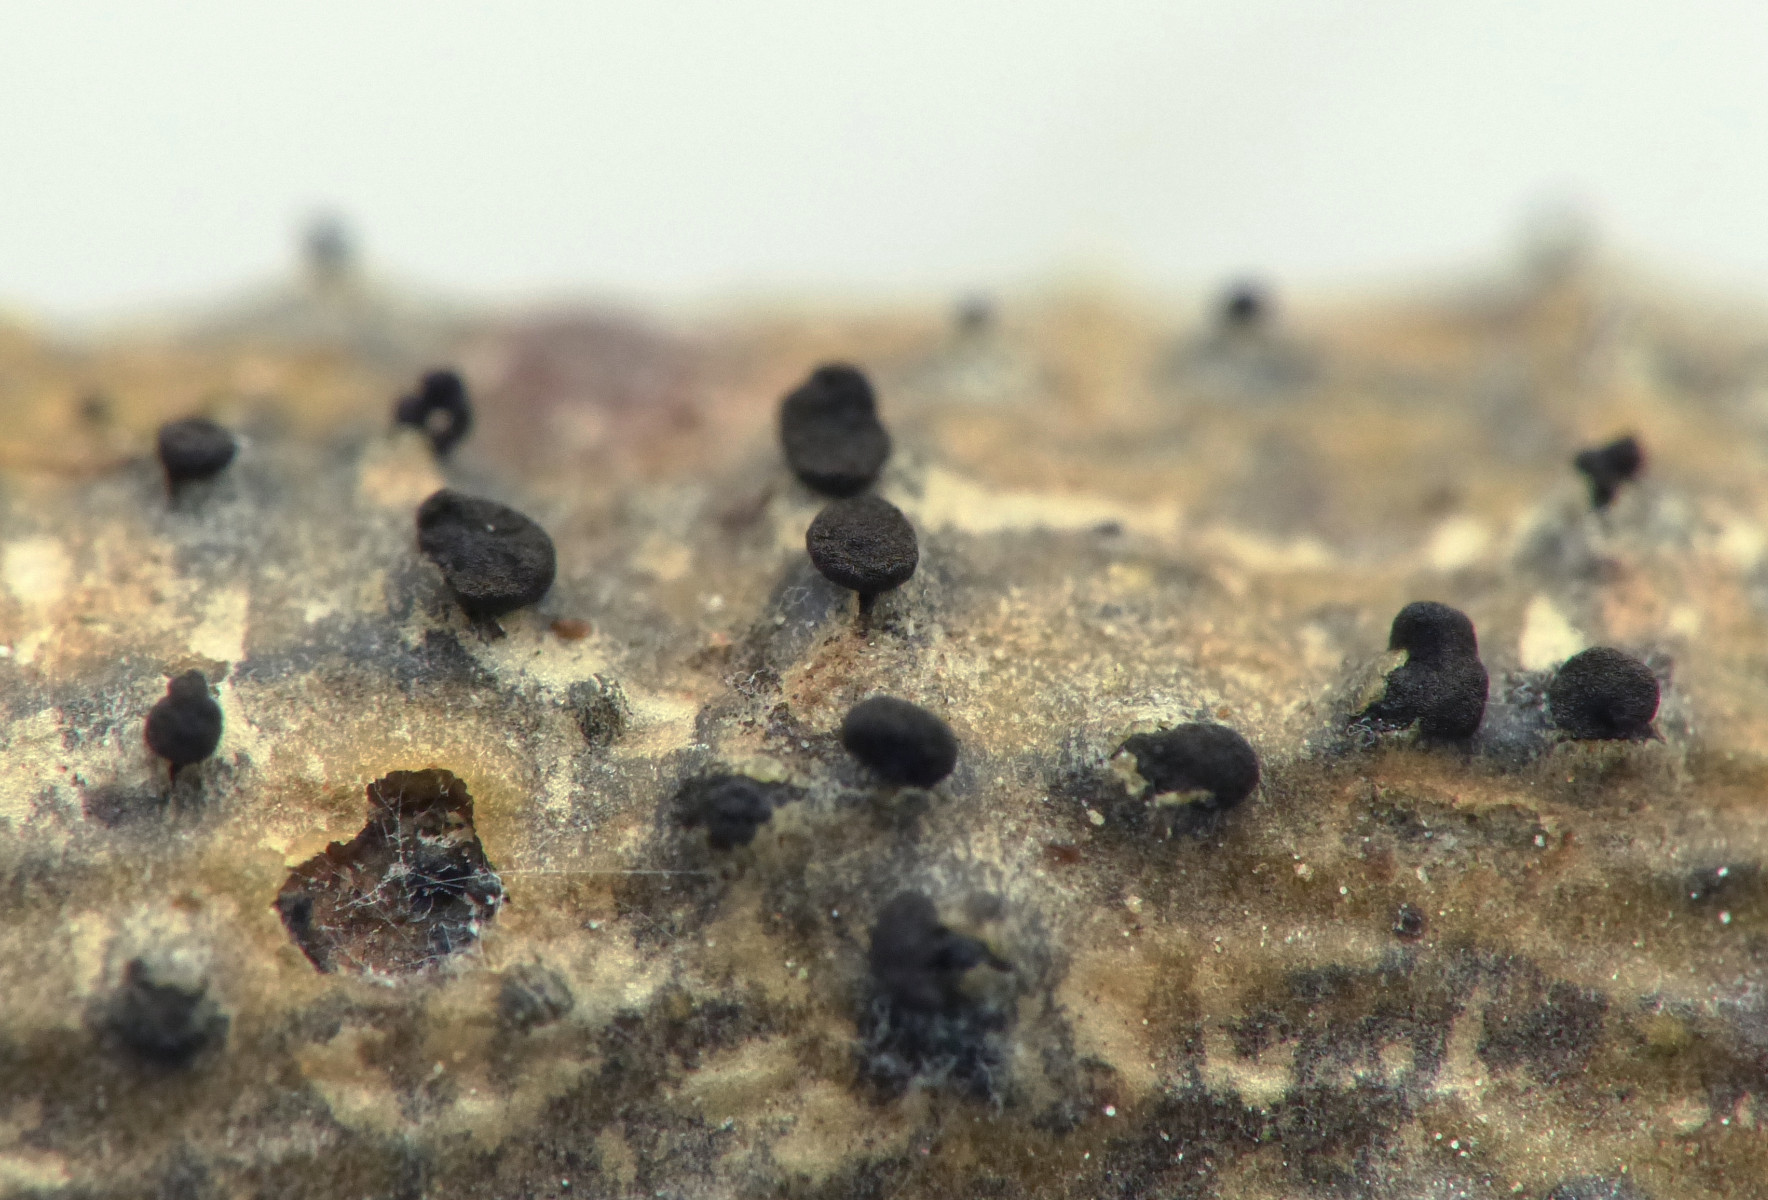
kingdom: Fungi
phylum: Ascomycota
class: Dothideomycetes
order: Botryosphaeriales
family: Botryosphaeriaceae
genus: Diplodia
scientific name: Diplodia rudis
